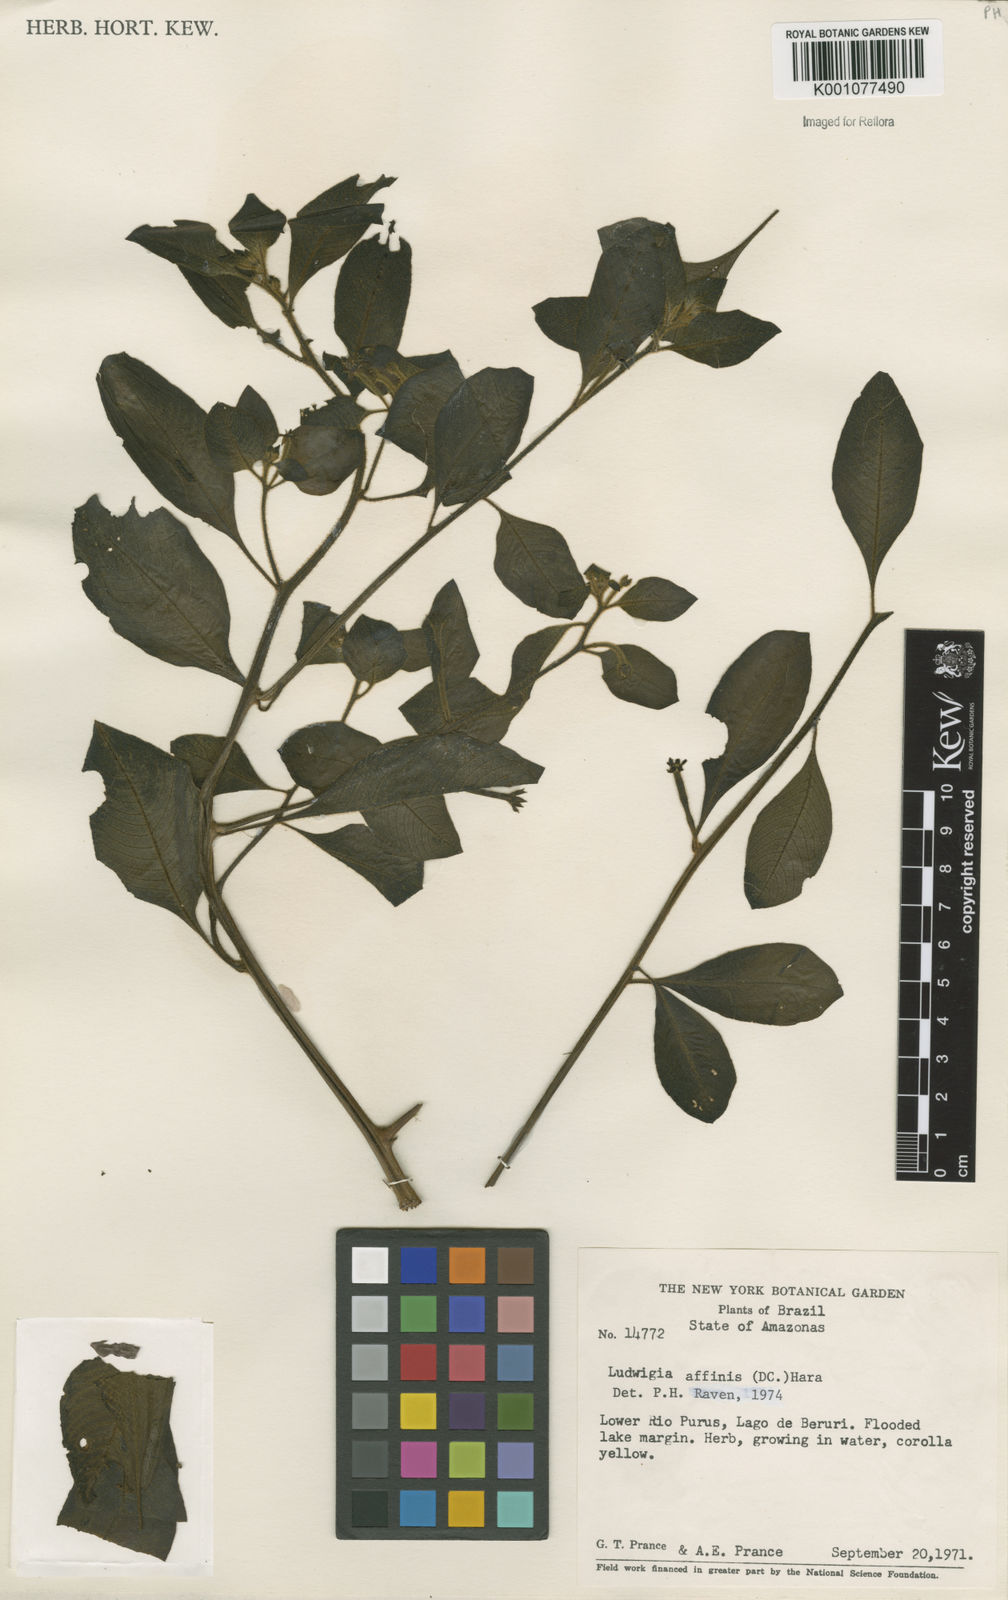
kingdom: Plantae
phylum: Tracheophyta
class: Magnoliopsida
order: Myrtales
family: Onagraceae
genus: Ludwigia
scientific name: Ludwigia affinis
